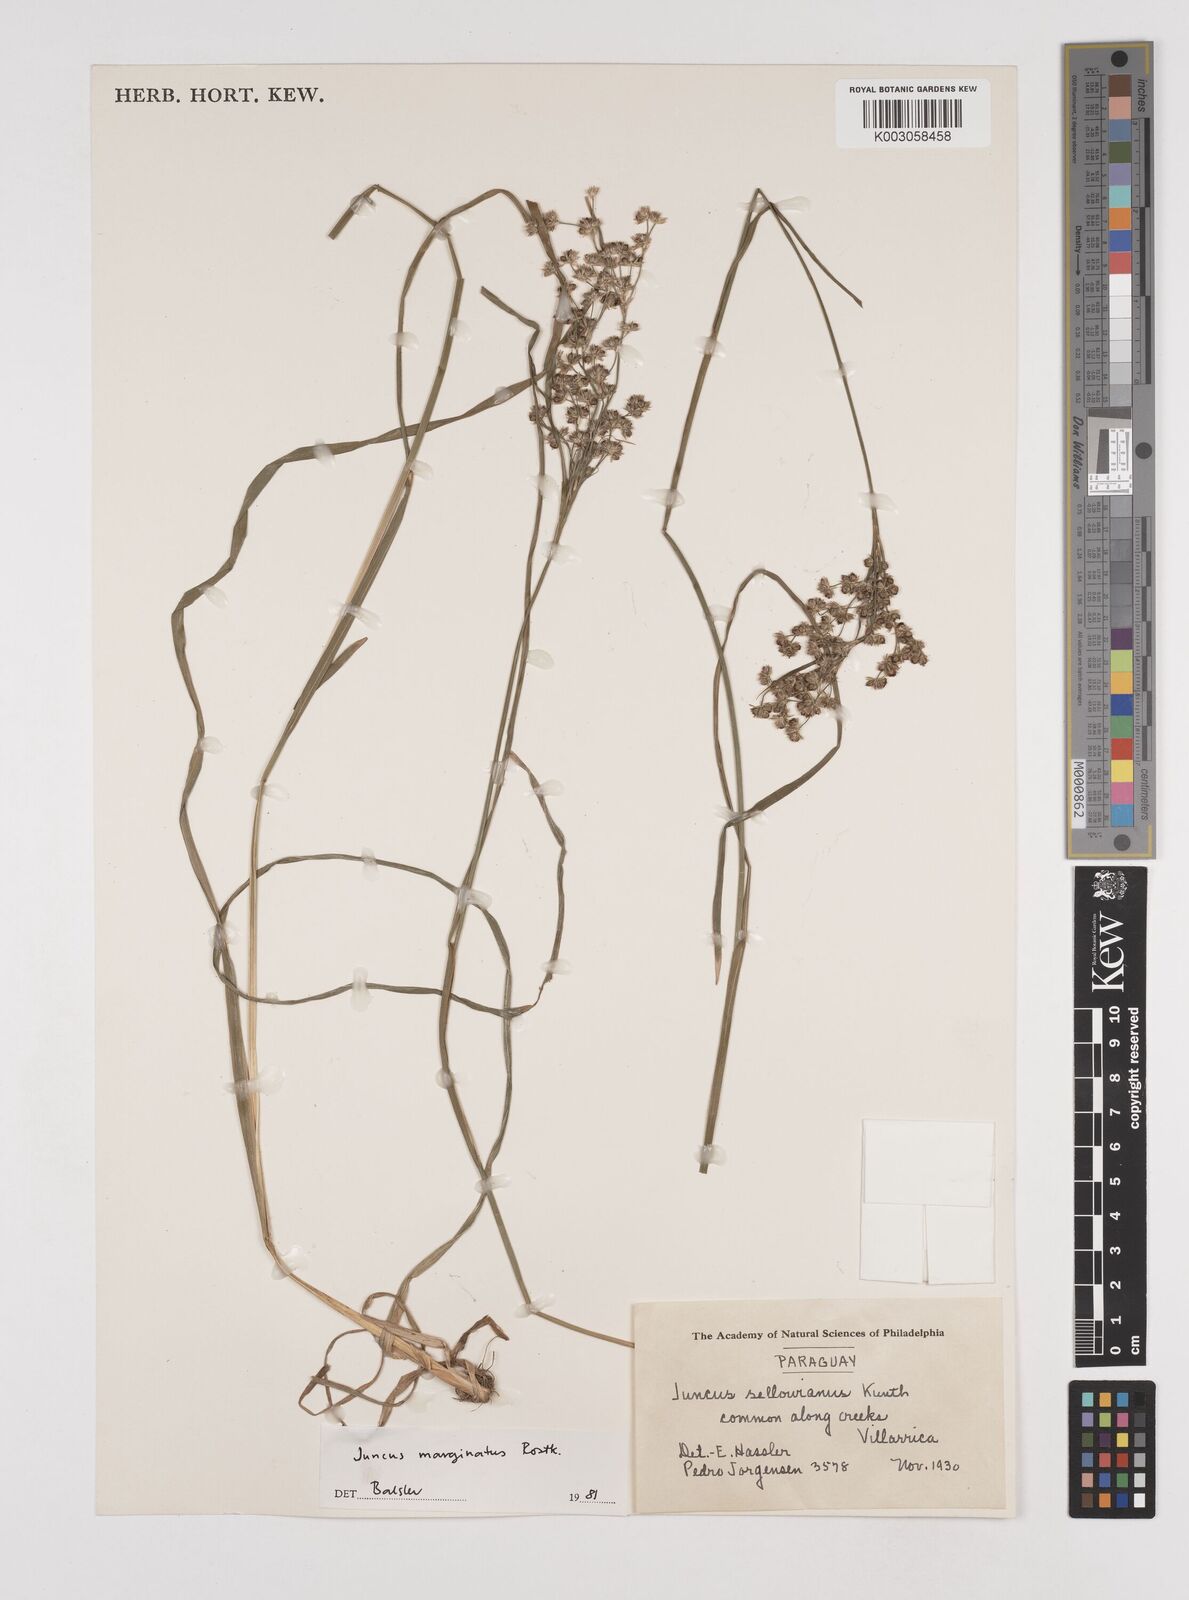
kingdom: Plantae
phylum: Tracheophyta
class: Liliopsida
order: Poales
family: Juncaceae
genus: Juncus
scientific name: Juncus marginatus
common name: Grass-leaf rush
